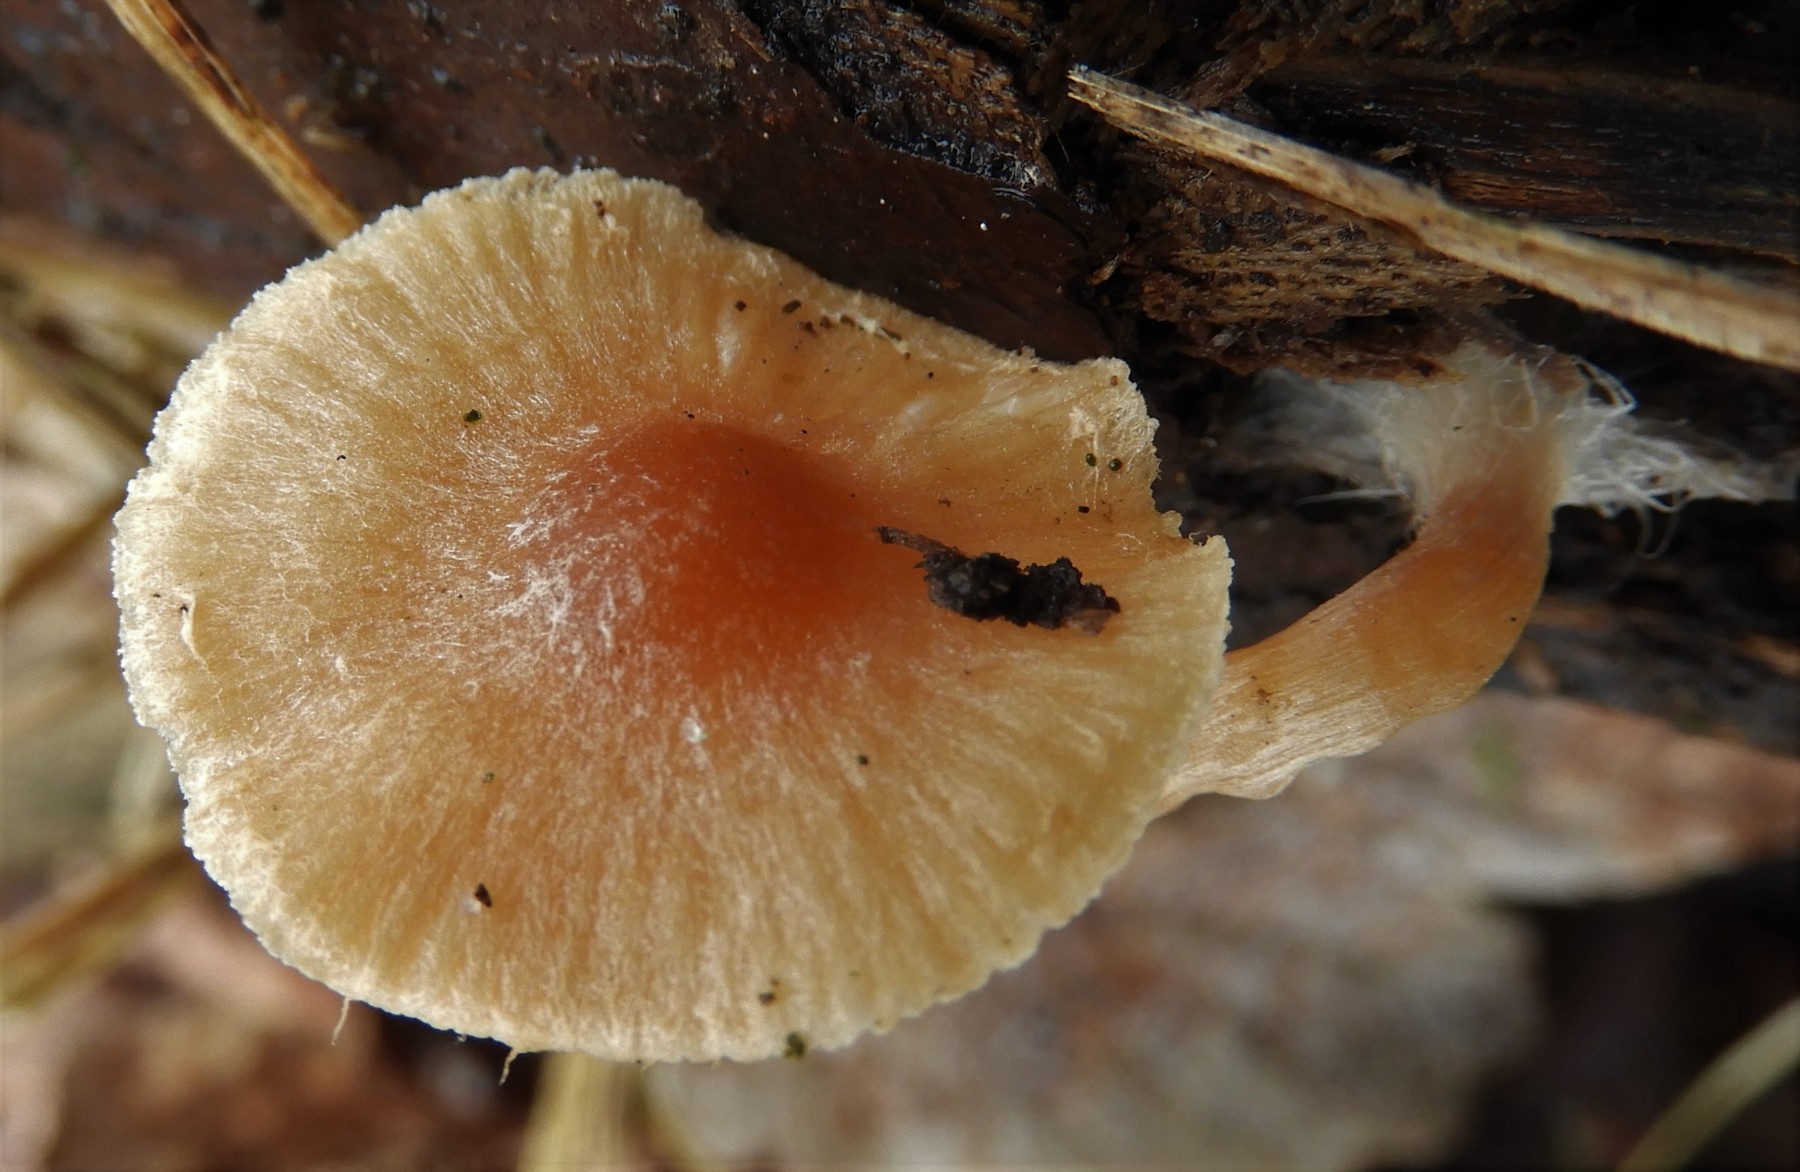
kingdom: Fungi
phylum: Basidiomycota
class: Agaricomycetes
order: Agaricales
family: Tubariaceae
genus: Tubaria
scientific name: Tubaria furfuracea
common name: kliddet fnughat
